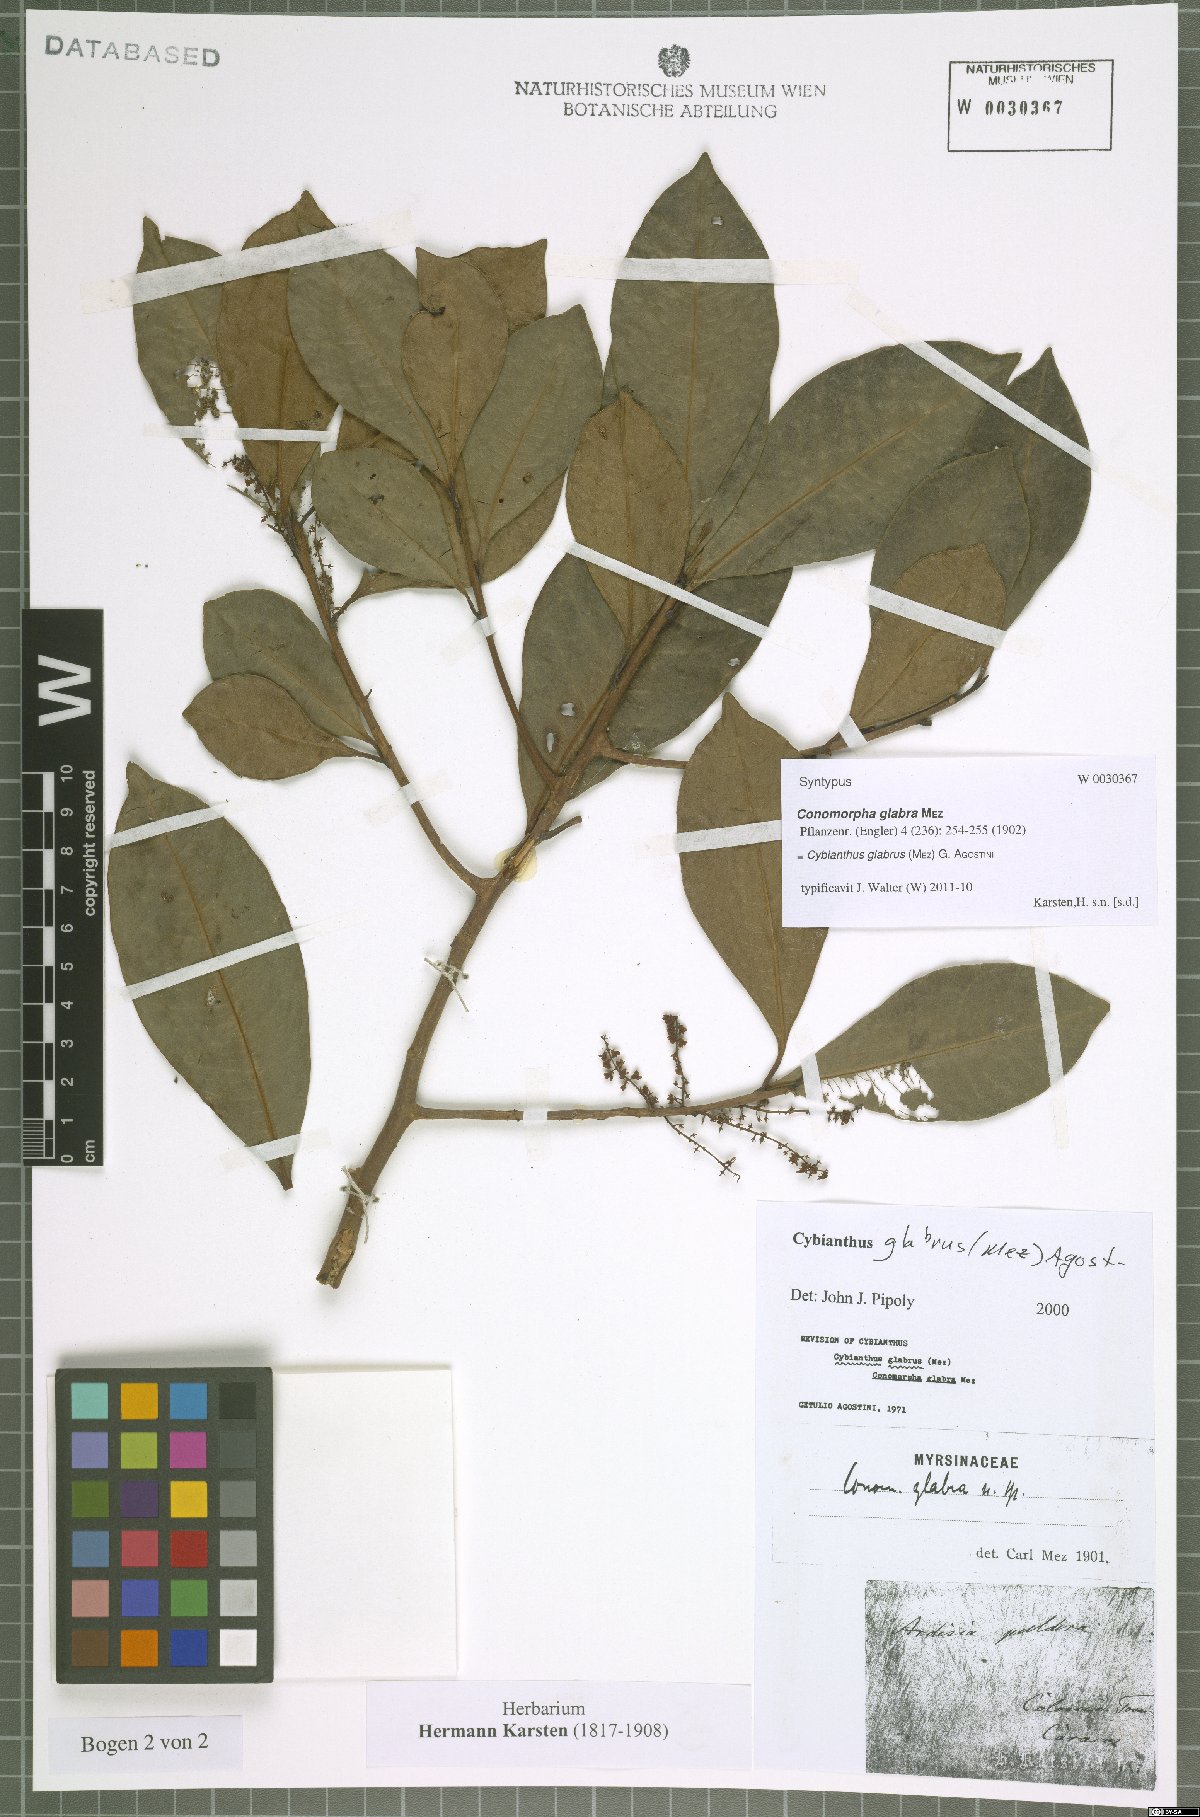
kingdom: Plantae
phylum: Tracheophyta
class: Magnoliopsida
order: Ericales
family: Primulaceae
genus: Cybianthus
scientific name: Cybianthus glabrus
